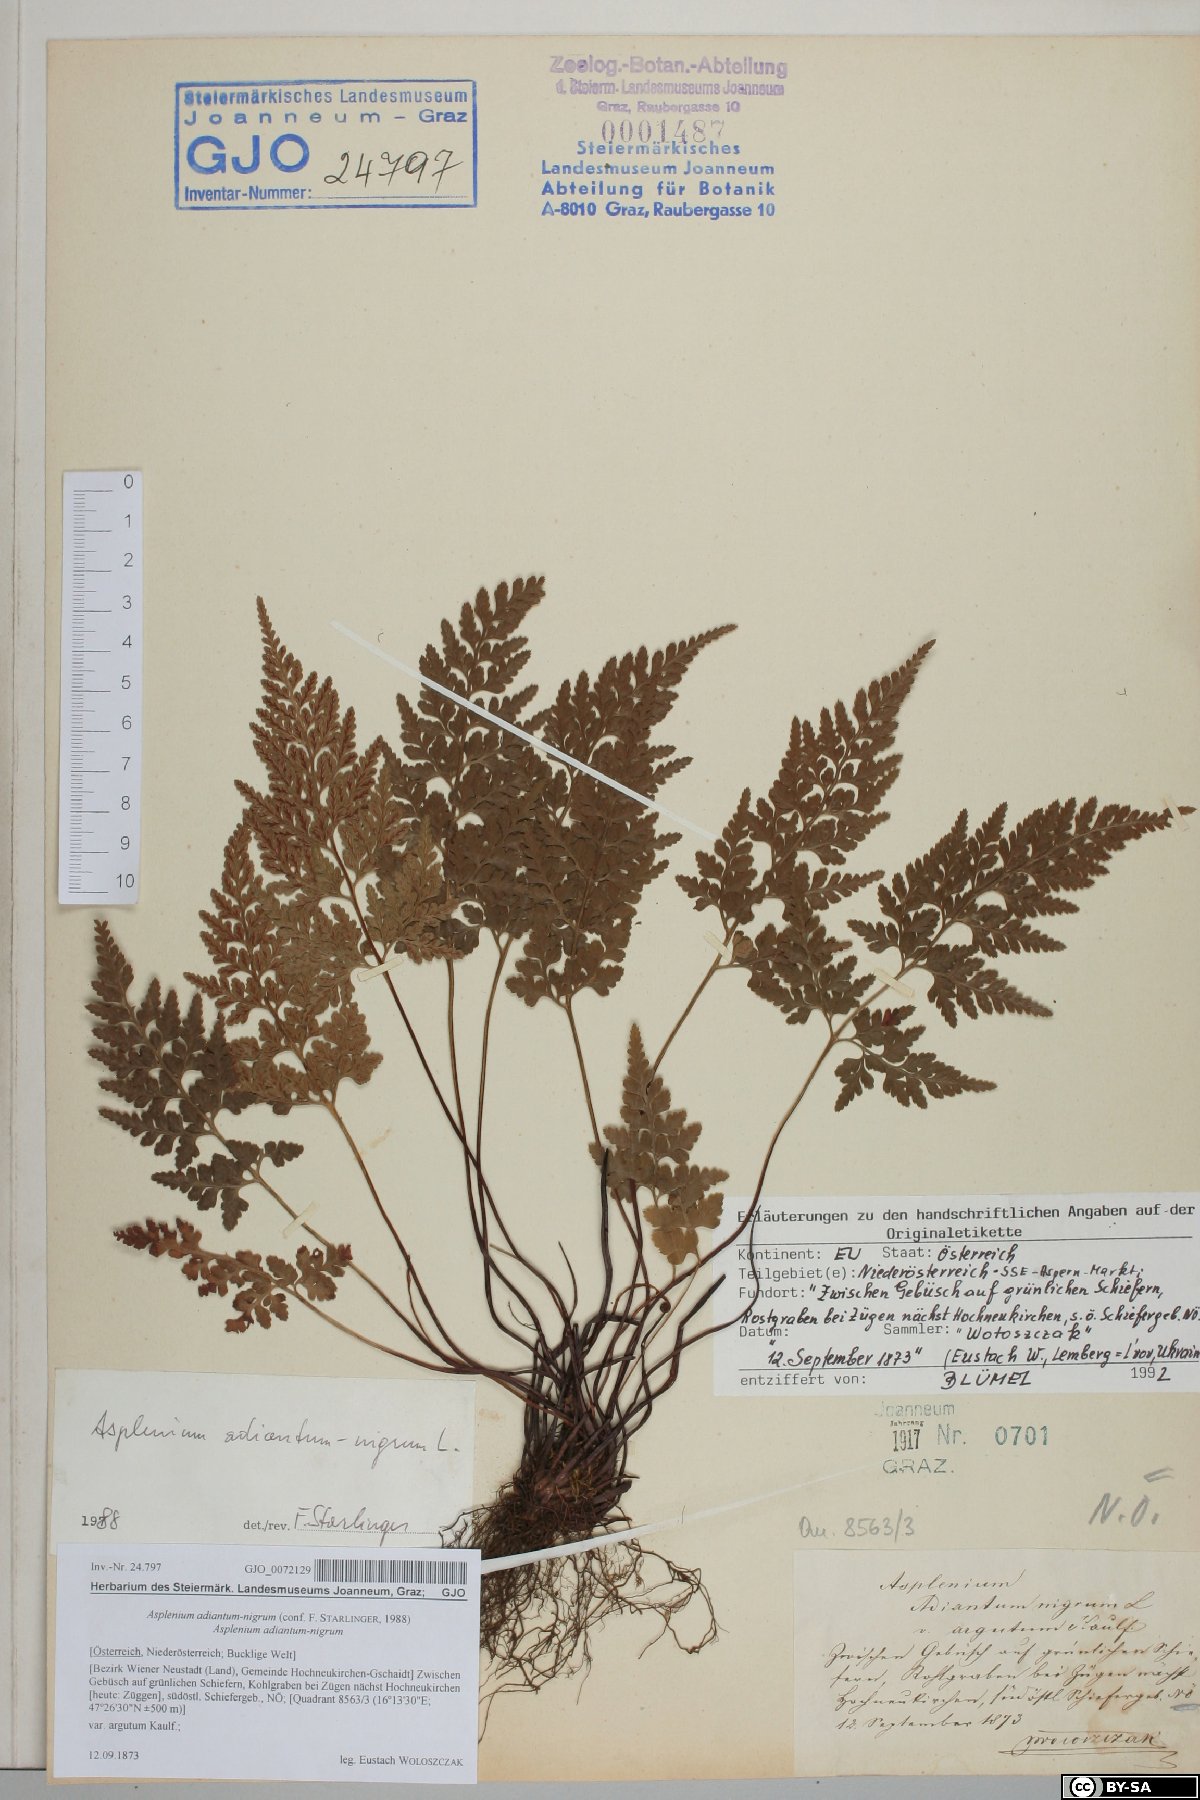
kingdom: Plantae
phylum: Tracheophyta
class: Polypodiopsida
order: Polypodiales
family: Aspleniaceae
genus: Asplenium
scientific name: Asplenium adiantum-nigrum
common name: Black spleenwort
